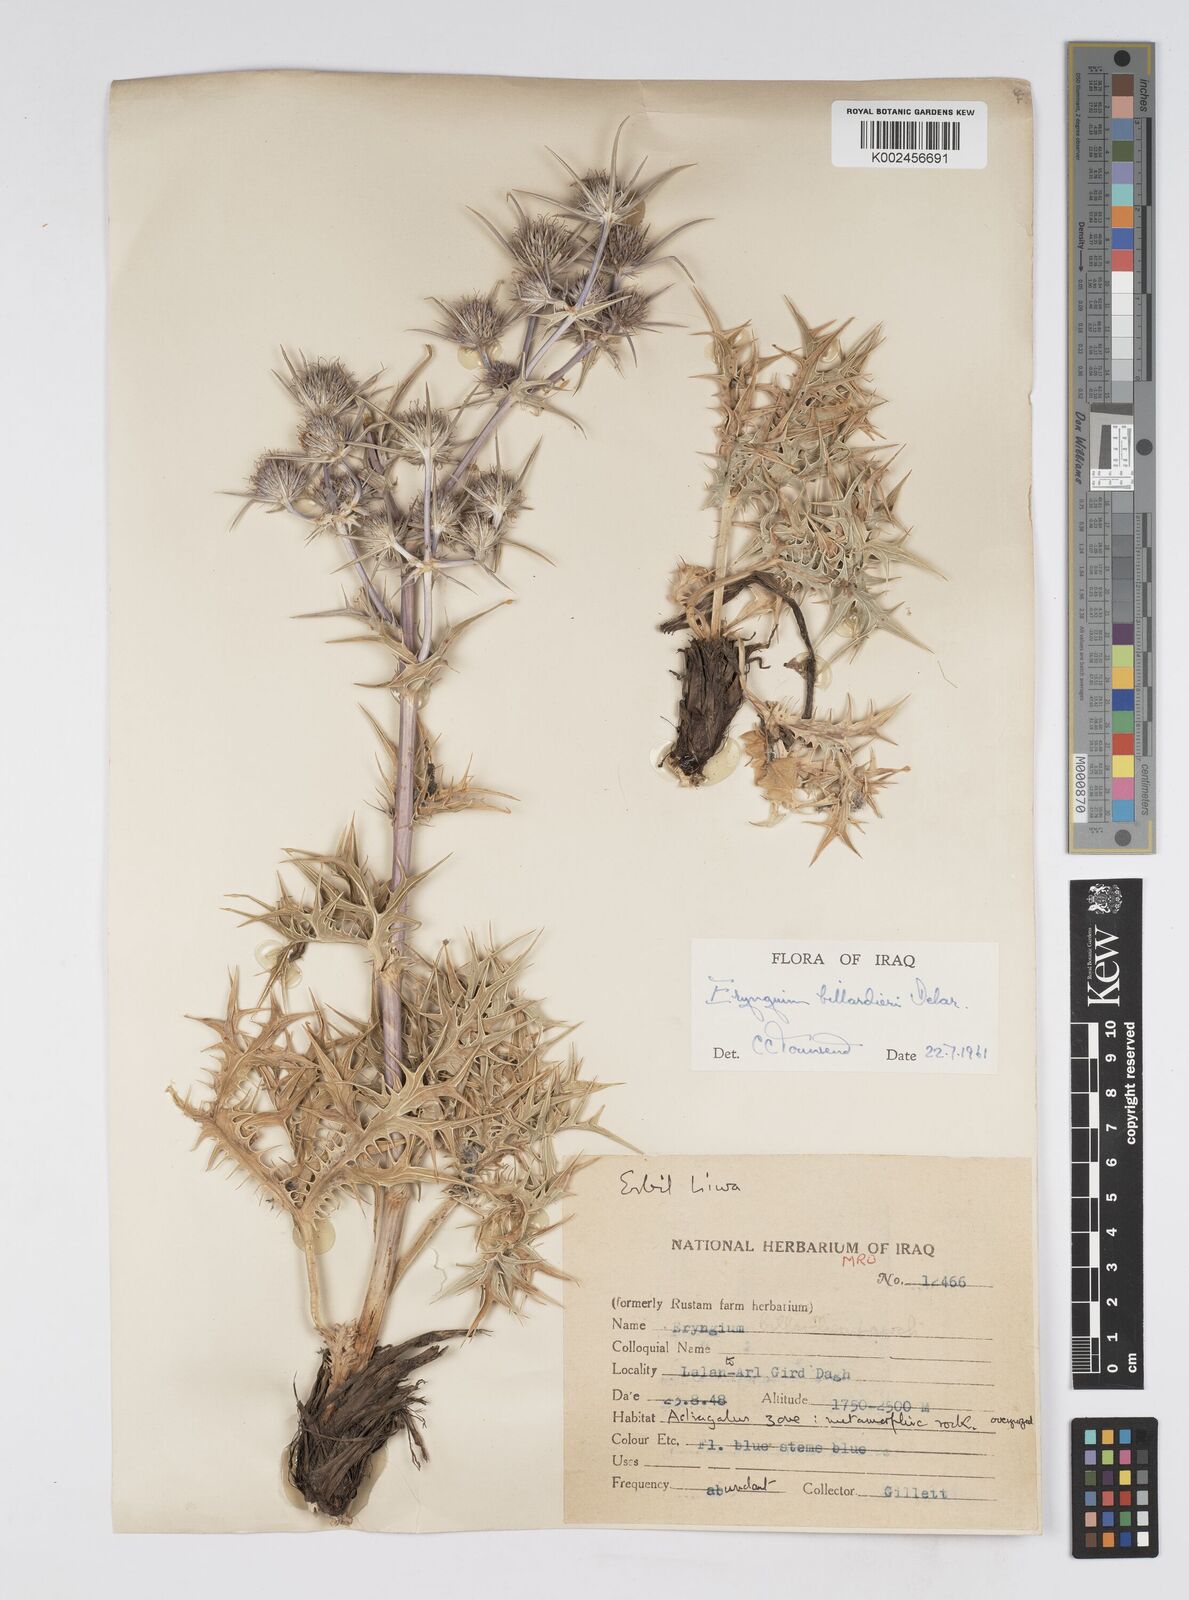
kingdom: Plantae
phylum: Tracheophyta
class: Magnoliopsida
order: Apiales
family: Apiaceae
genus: Eryngium
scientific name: Eryngium billardierei
